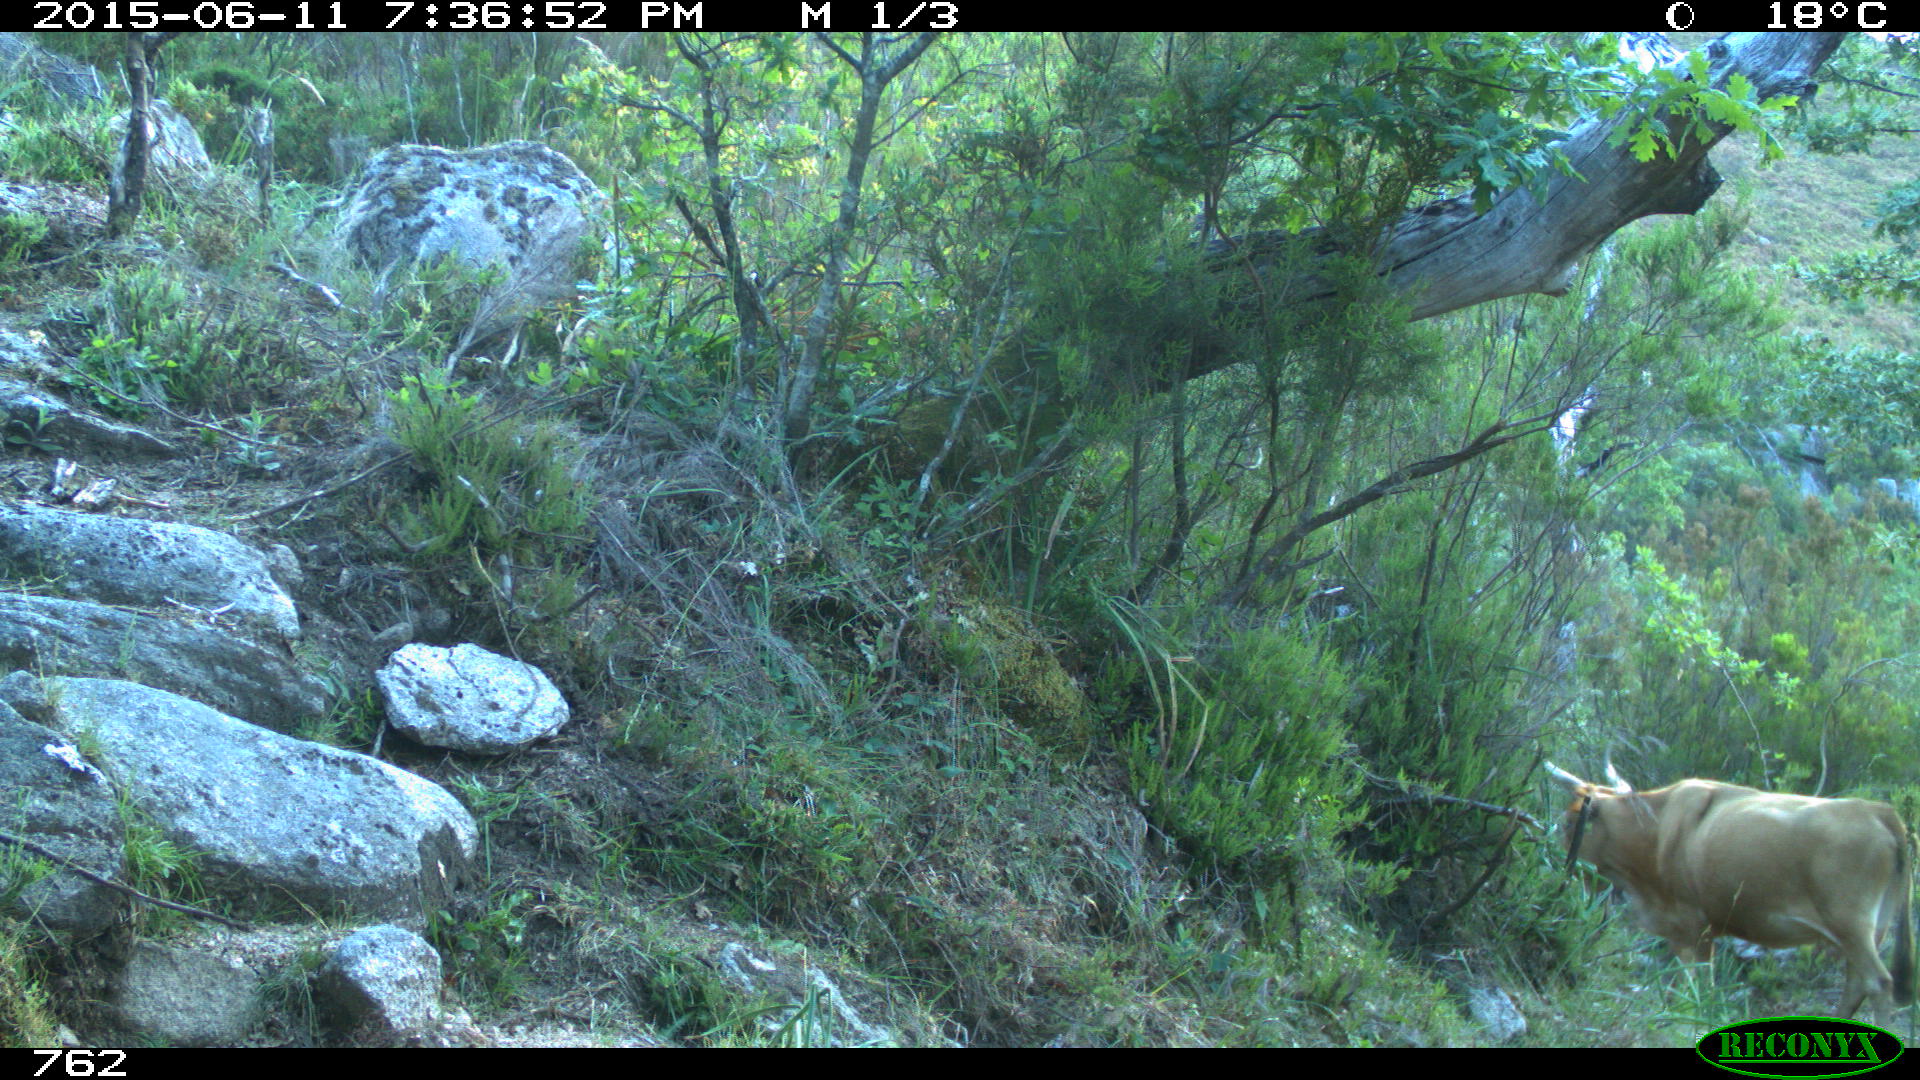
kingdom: Animalia
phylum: Chordata
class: Mammalia
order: Artiodactyla
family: Bovidae
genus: Bos
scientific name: Bos taurus
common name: Domesticated cattle
